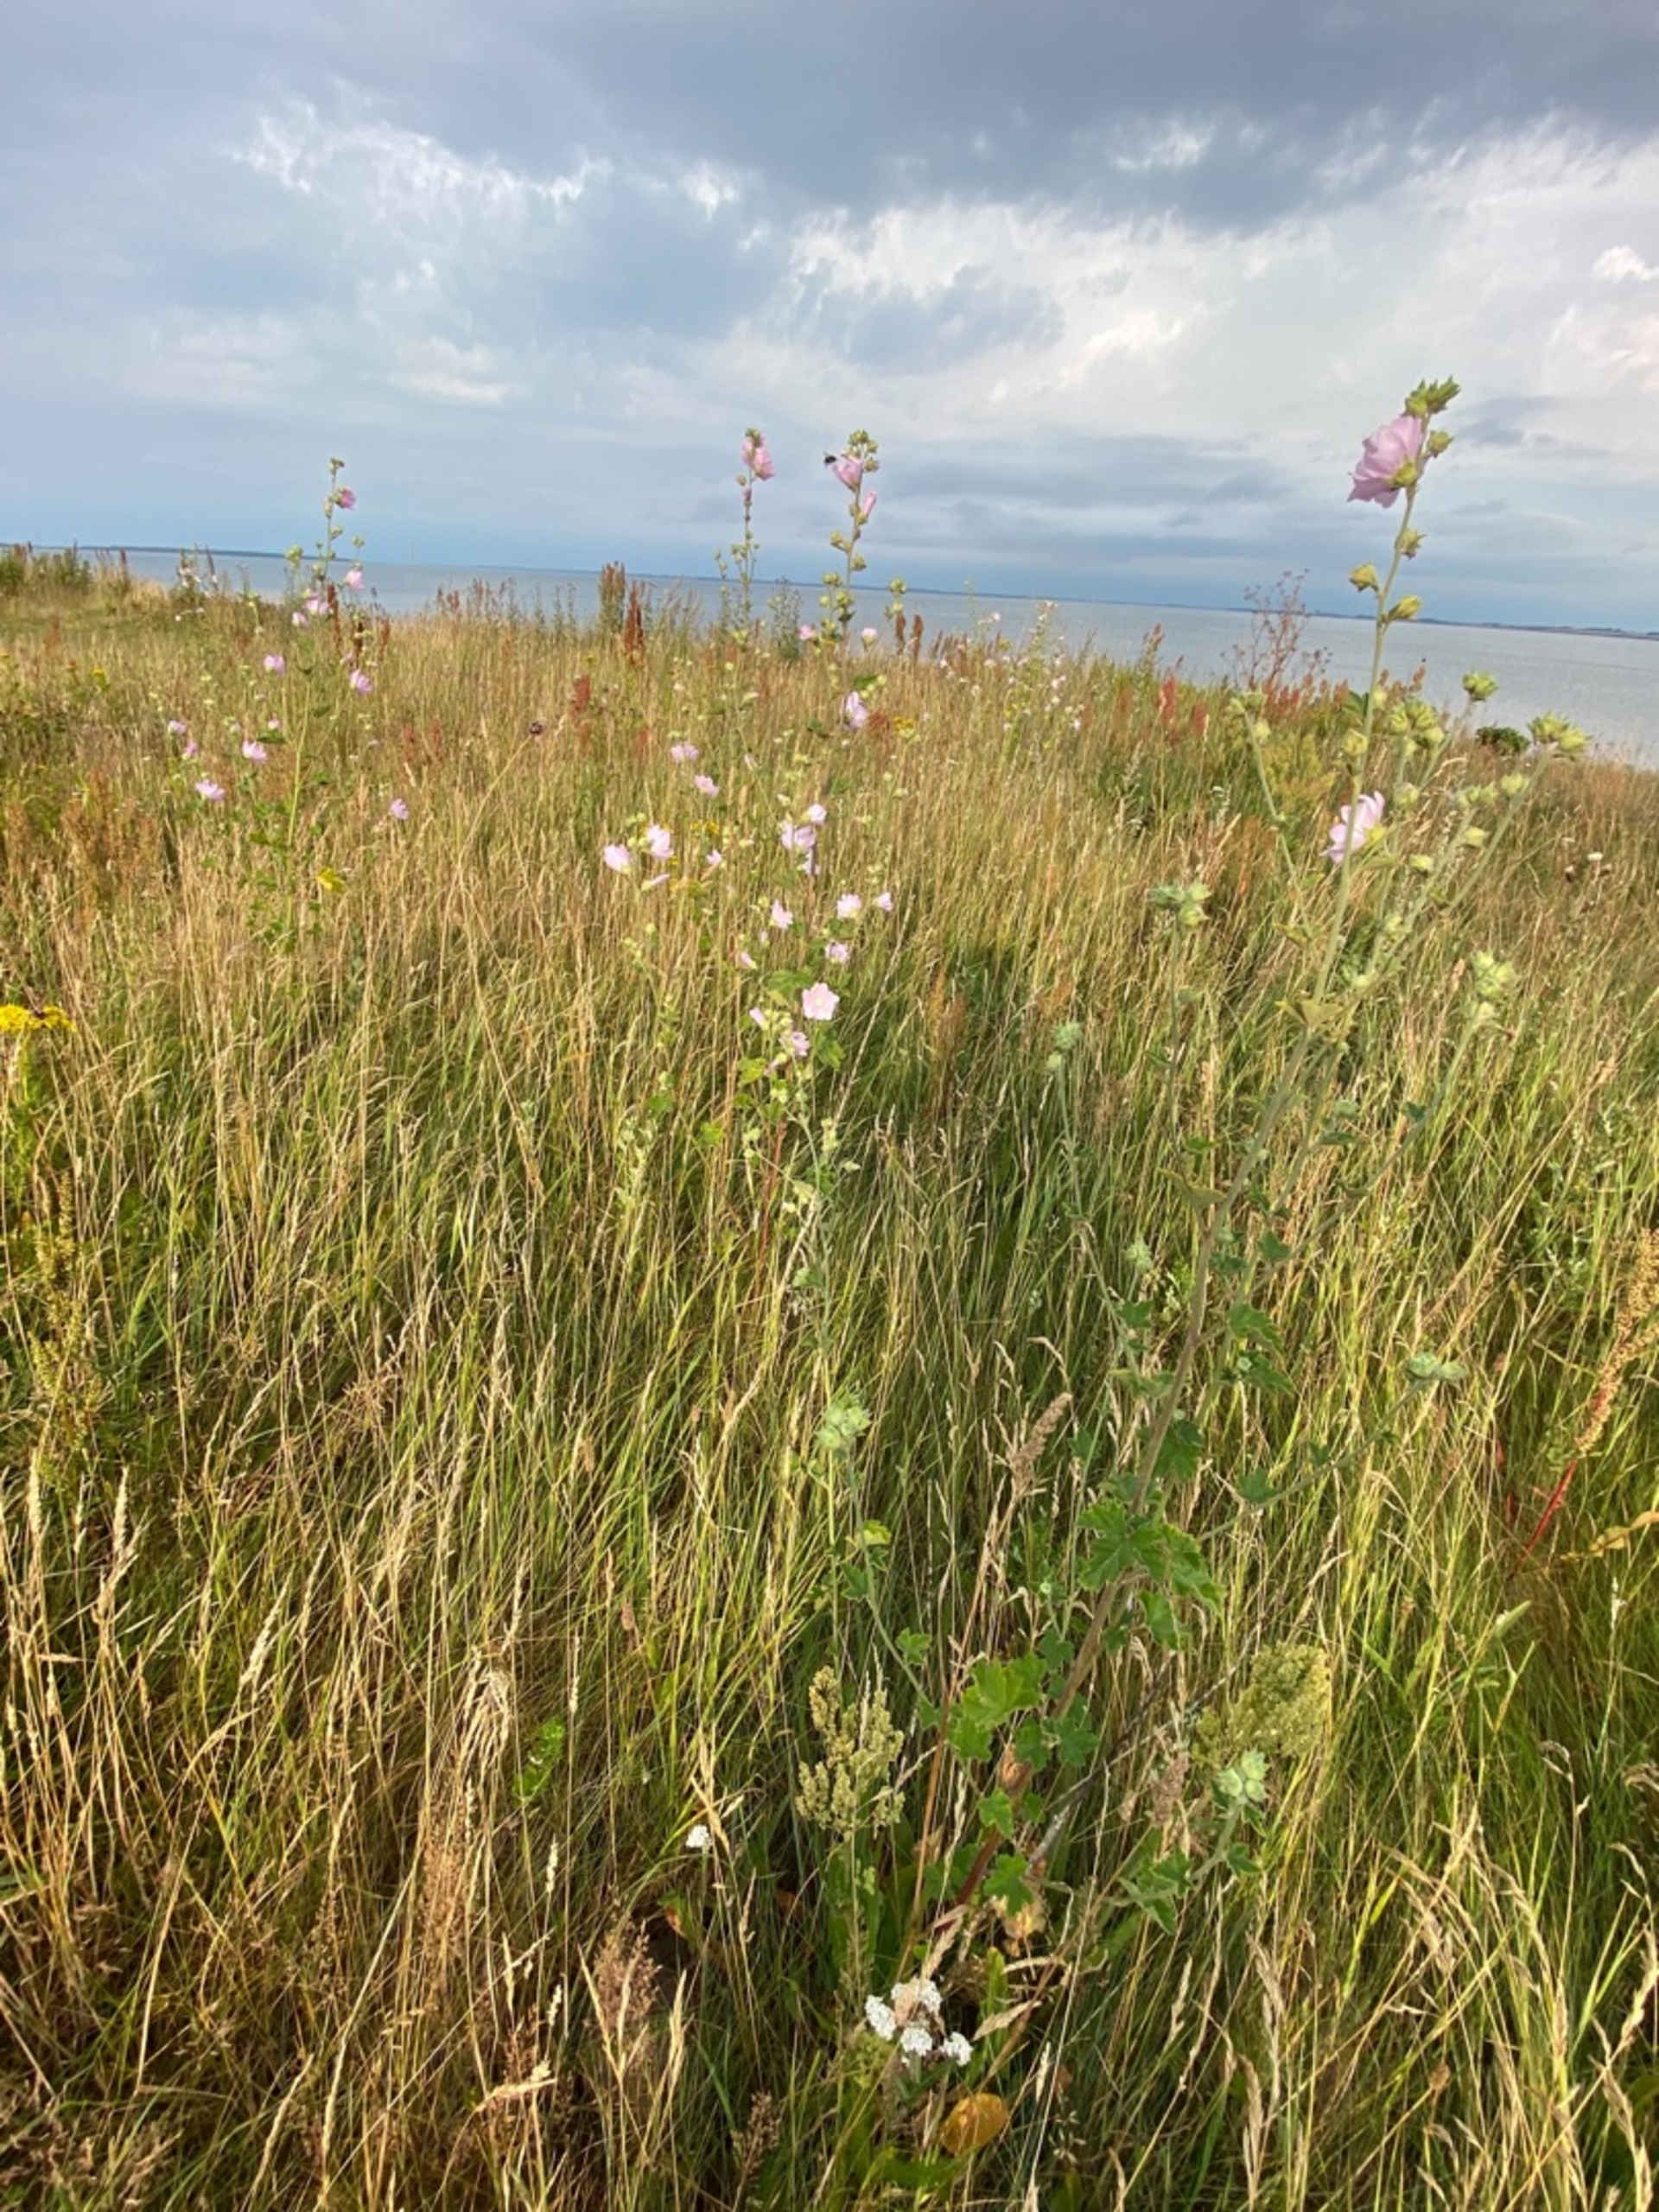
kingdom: Plantae
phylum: Tracheophyta
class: Magnoliopsida
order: Malvales
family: Malvaceae
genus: Malva
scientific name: Malva thuringiaca
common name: Tysk poppelrose
